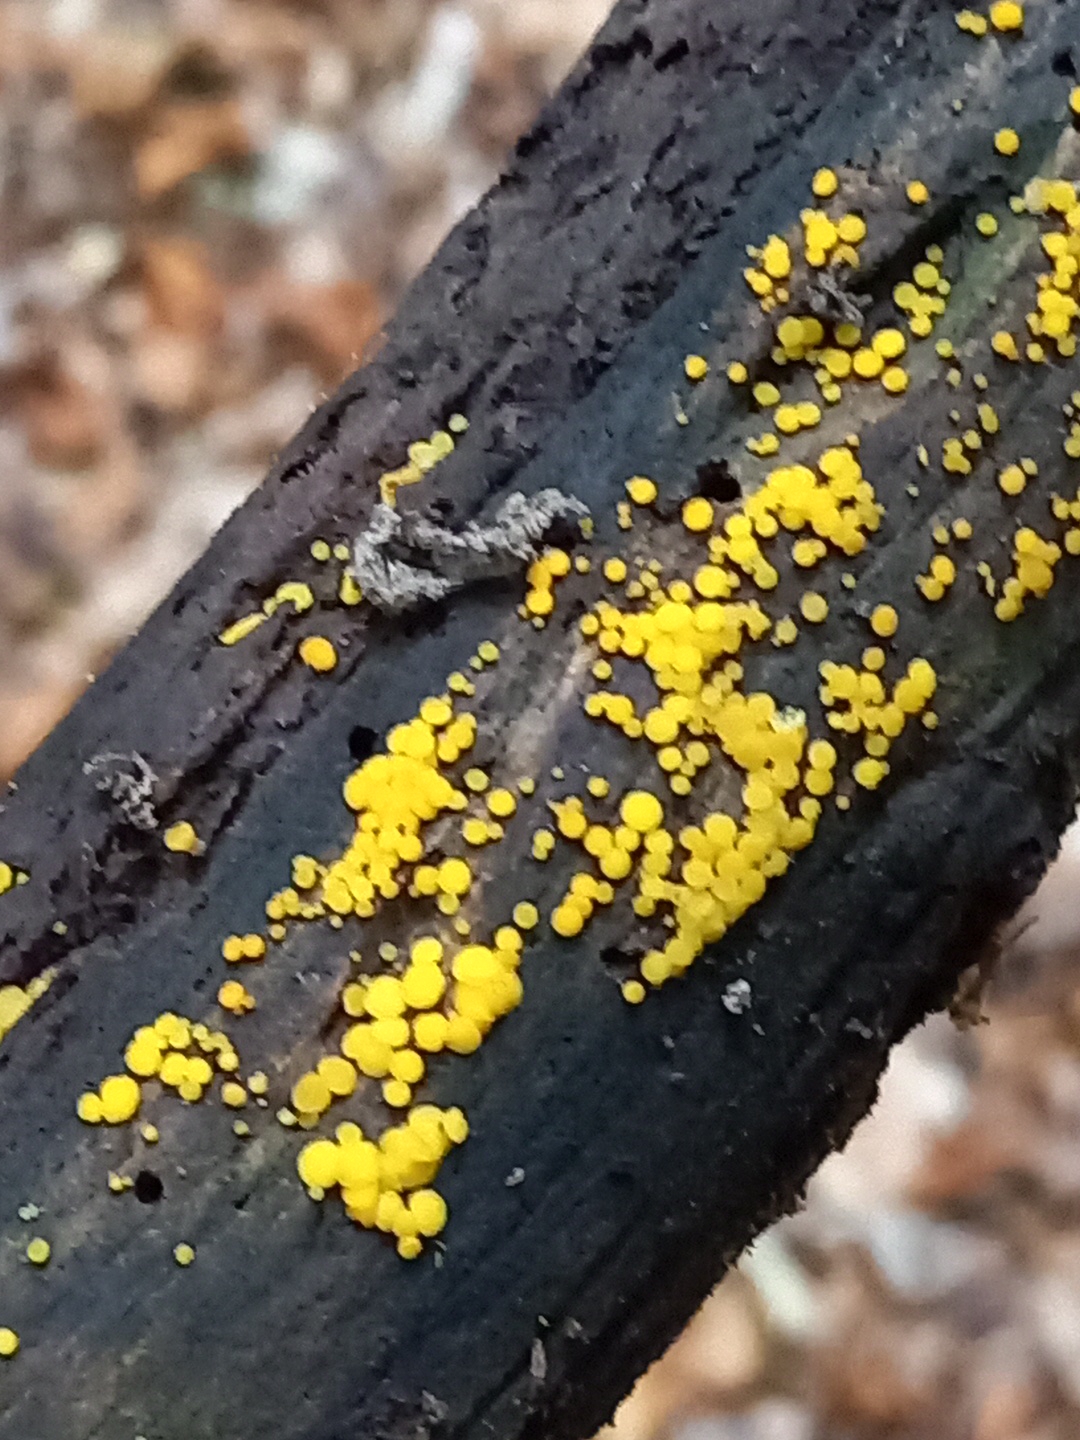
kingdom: Fungi
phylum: Ascomycota
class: Leotiomycetes
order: Helotiales
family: Pezizellaceae
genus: Calycina
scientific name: Calycina citrina
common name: almindelig gulskive
